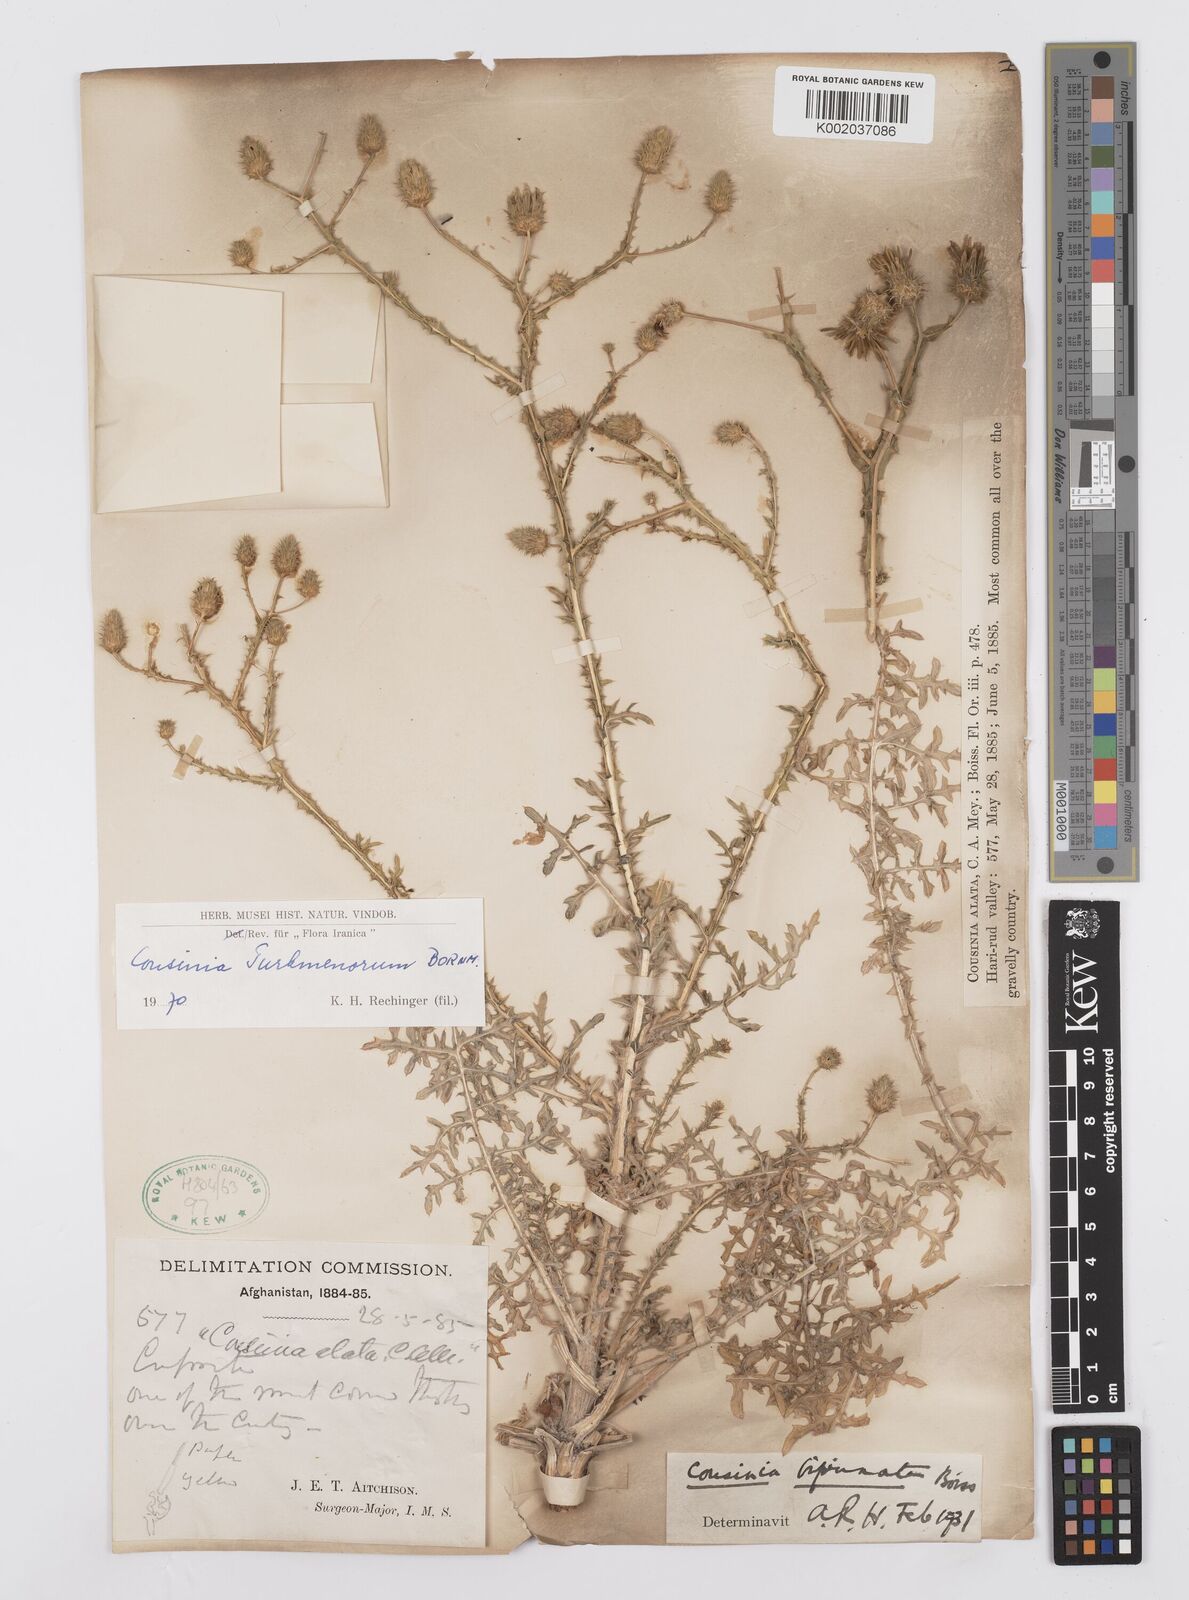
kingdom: Plantae
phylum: Tracheophyta
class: Magnoliopsida
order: Asterales
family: Asteraceae
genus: Cousinia
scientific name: Cousinia turkmenorum
